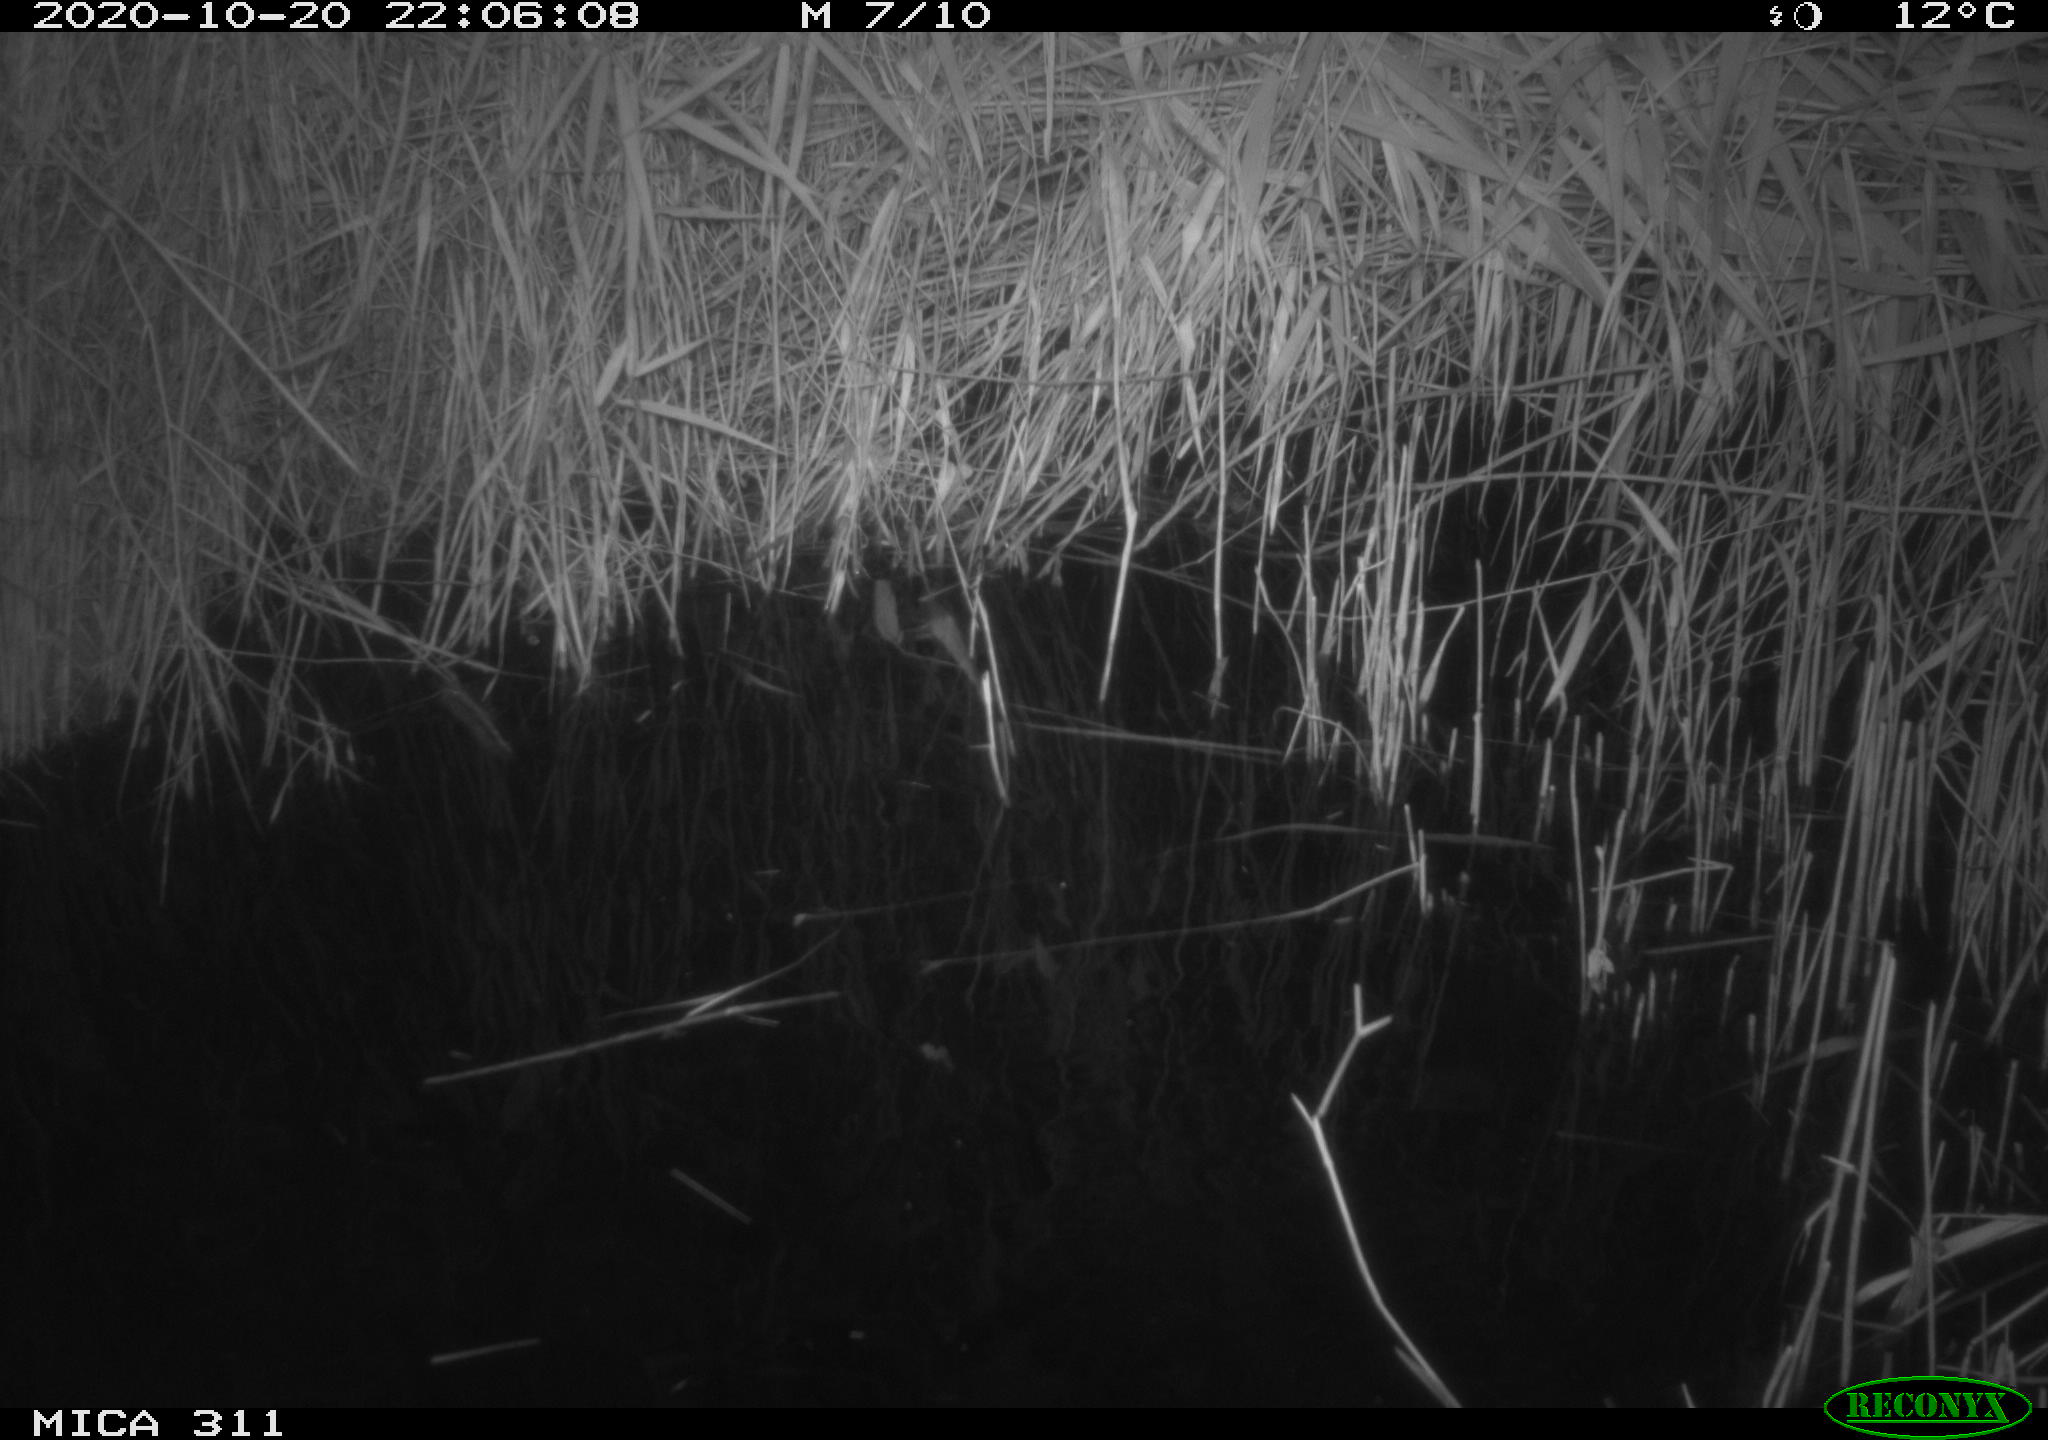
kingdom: Animalia
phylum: Chordata
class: Mammalia
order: Rodentia
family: Muridae
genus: Rattus
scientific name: Rattus norvegicus
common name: Brown rat
